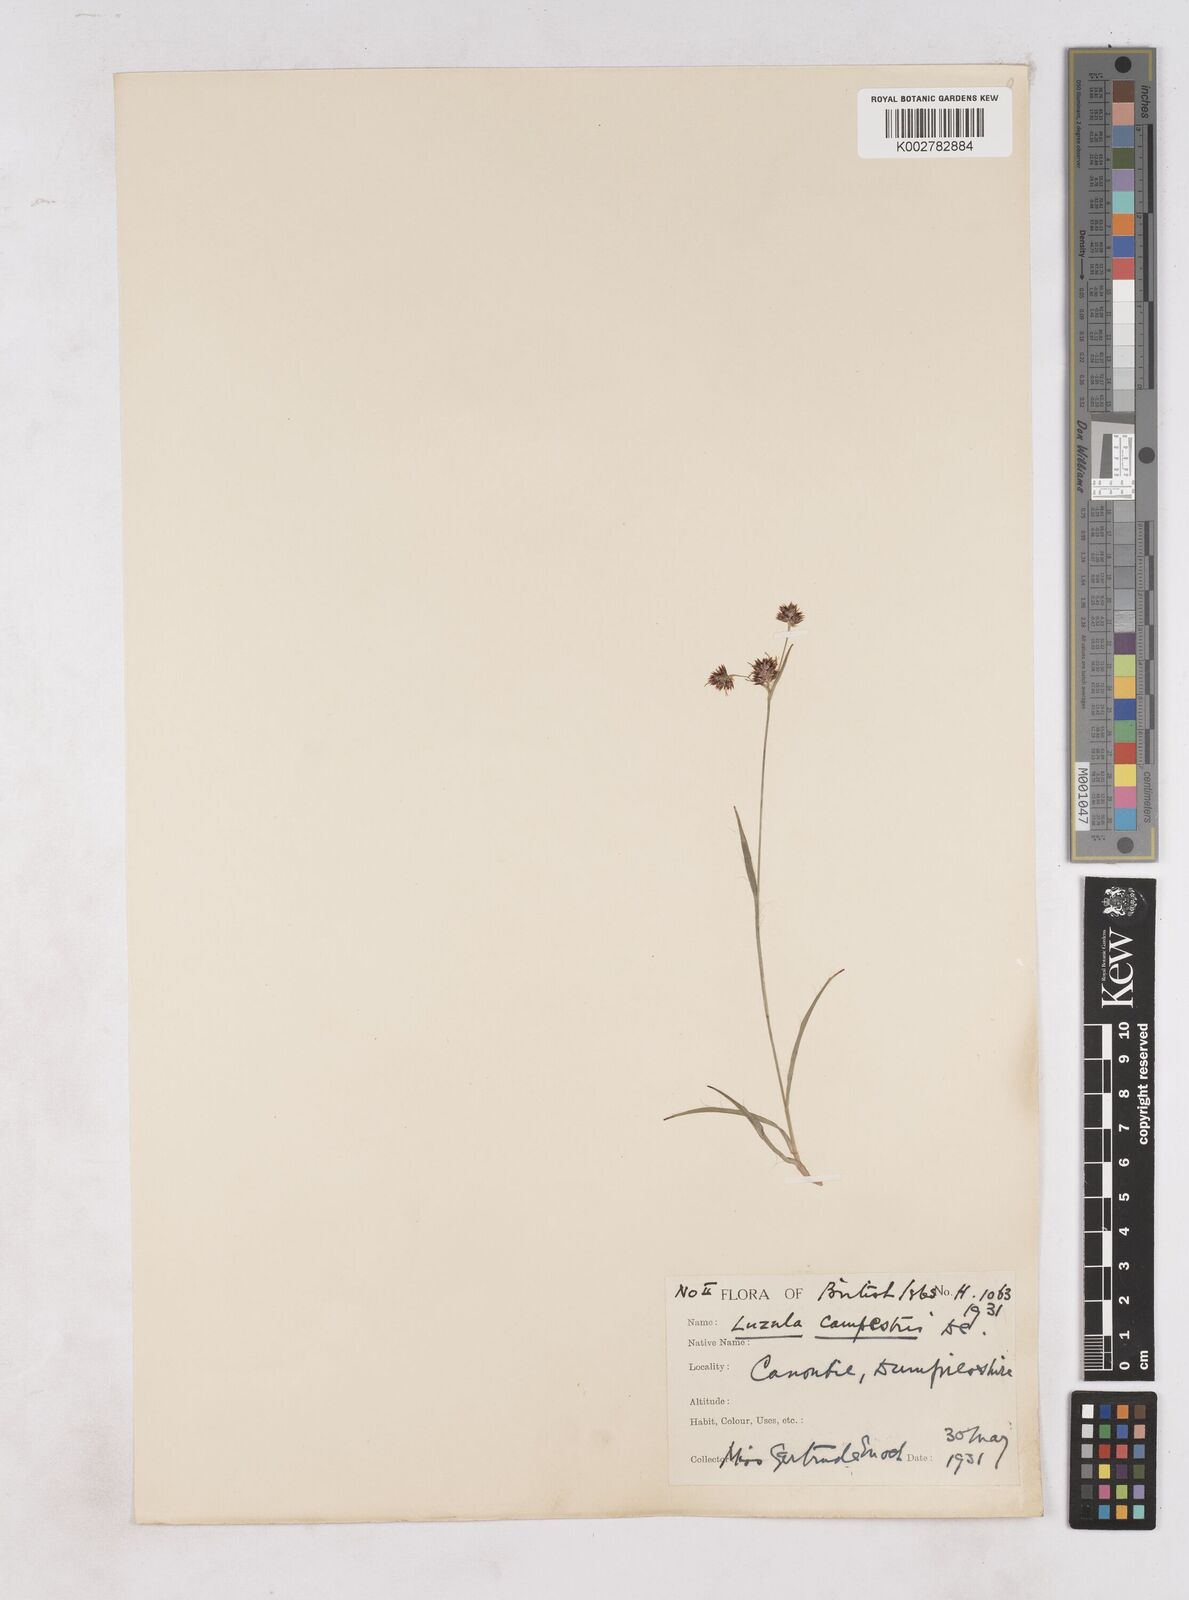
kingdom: Plantae
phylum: Tracheophyta
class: Liliopsida
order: Poales
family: Juncaceae
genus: Luzula
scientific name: Luzula campestris
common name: Field wood-rush
